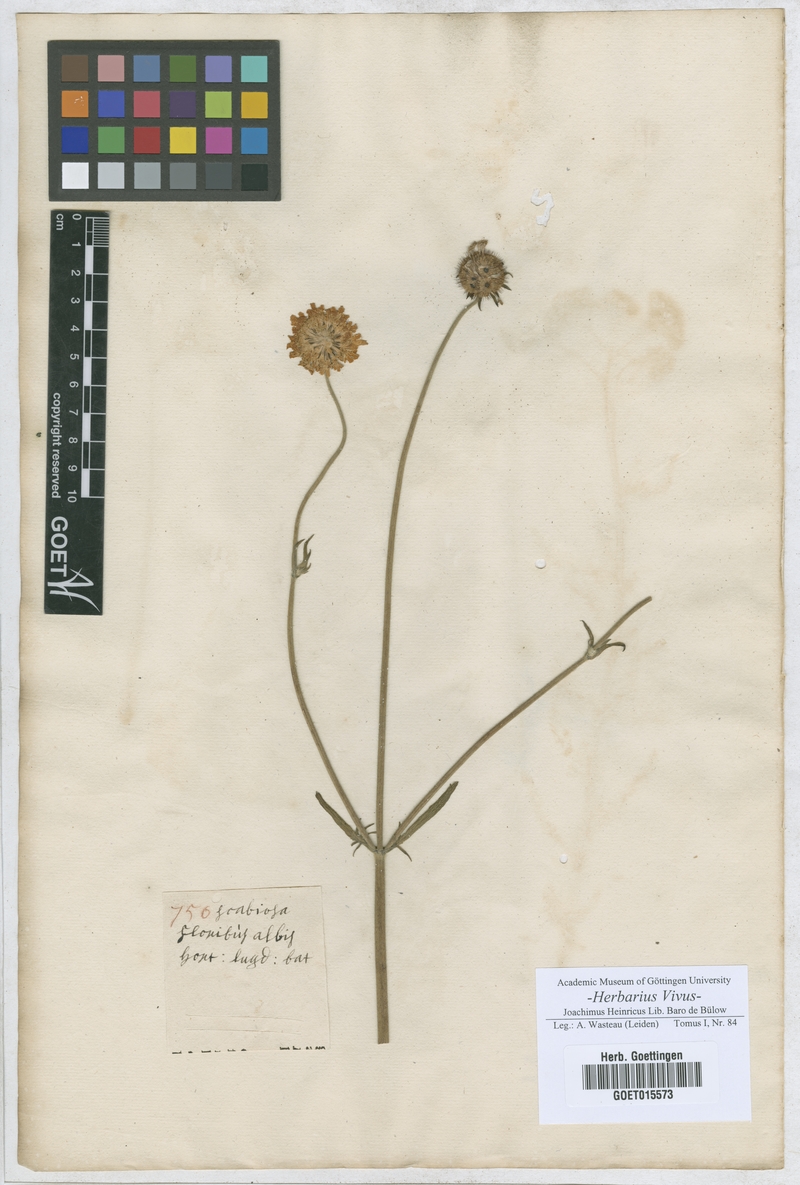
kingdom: Plantae
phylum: Tracheophyta
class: Magnoliopsida
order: Dipsacales
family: Caprifoliaceae
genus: Scabiosa
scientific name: Scabiosa
